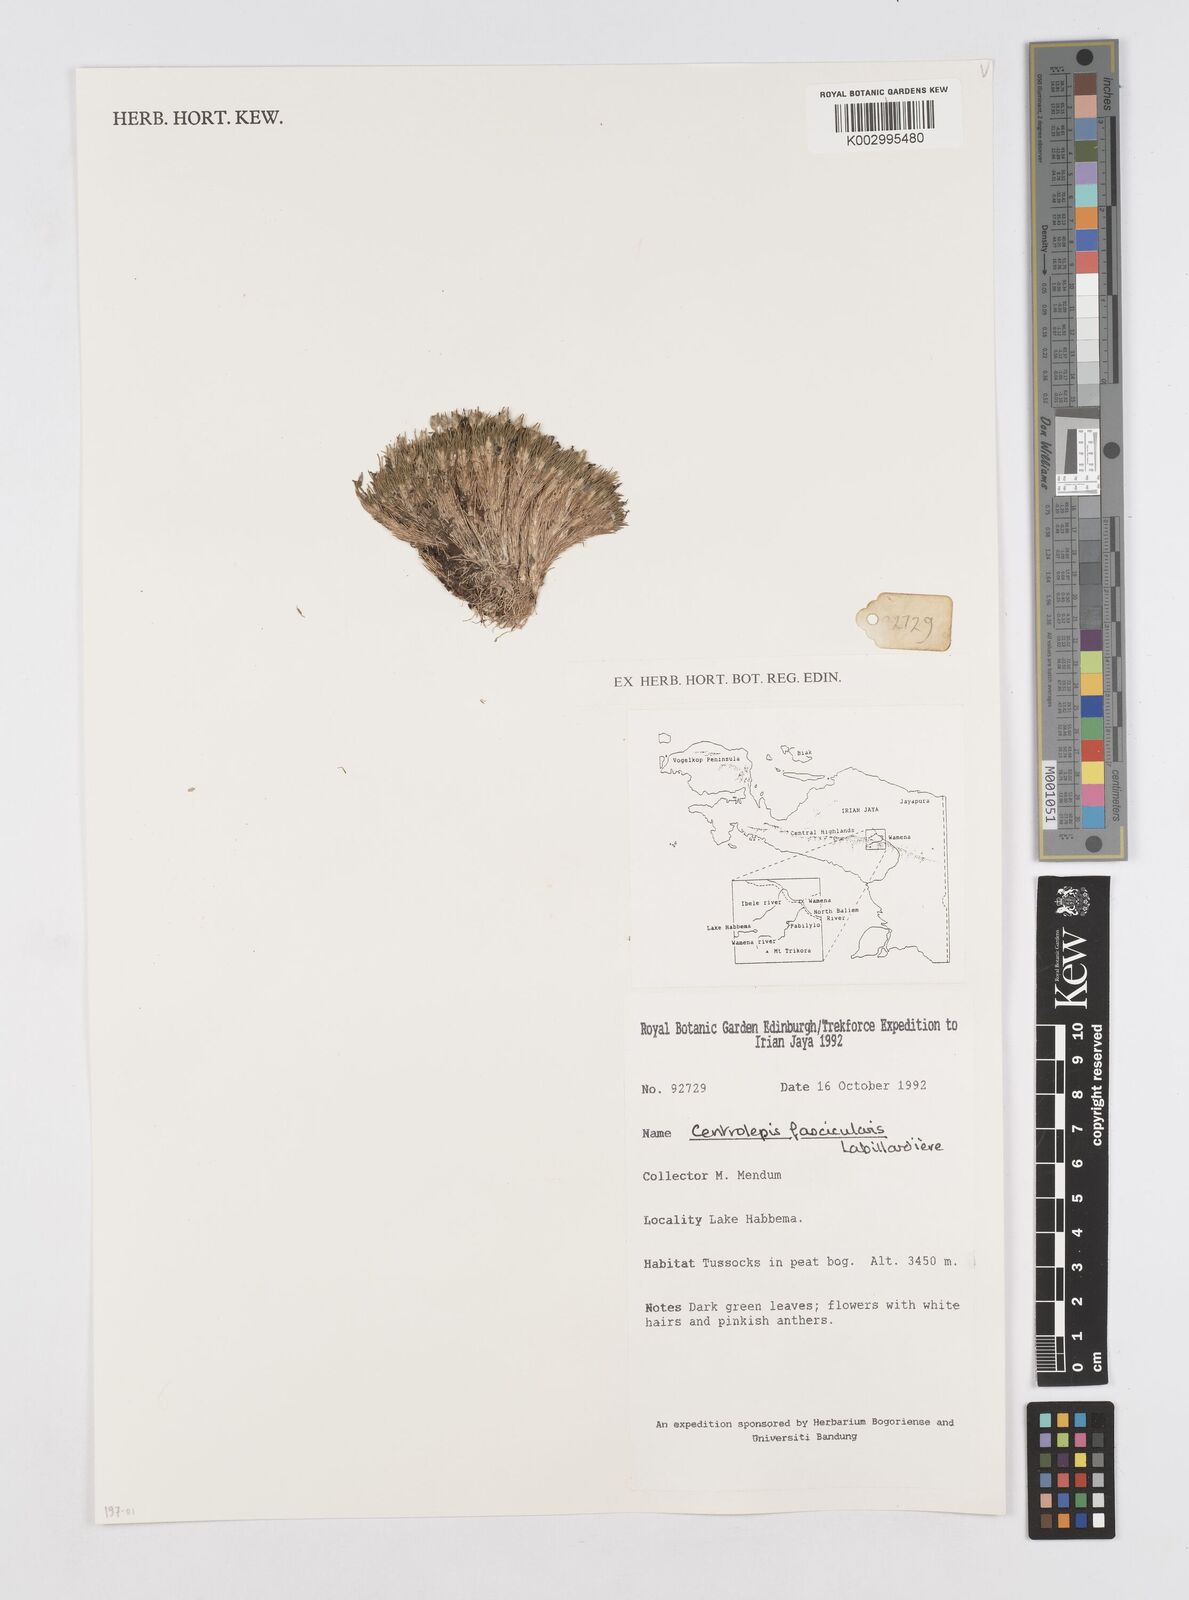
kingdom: Plantae
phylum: Tracheophyta
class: Liliopsida
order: Poales
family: Restionaceae
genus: Centrolepis
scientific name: Centrolepis fascicularis
